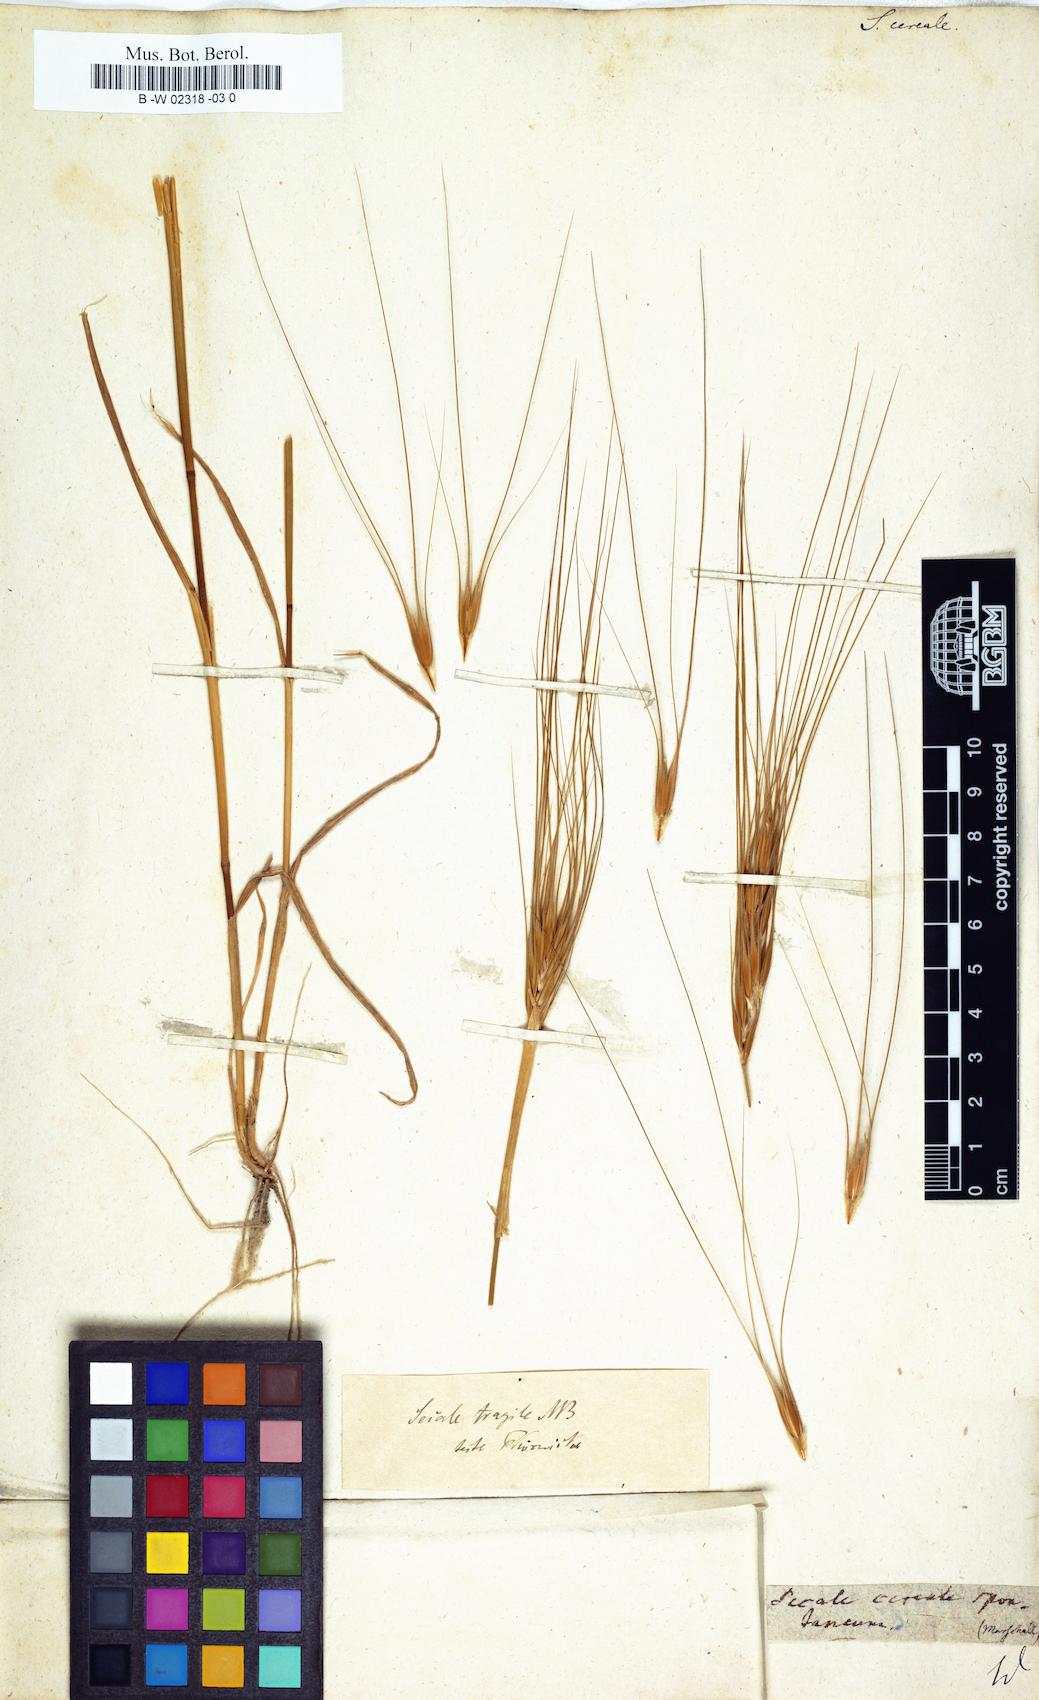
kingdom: Plantae
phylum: Tracheophyta
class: Liliopsida
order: Poales
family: Poaceae
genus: Secale
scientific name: Secale cereale
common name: Rye
